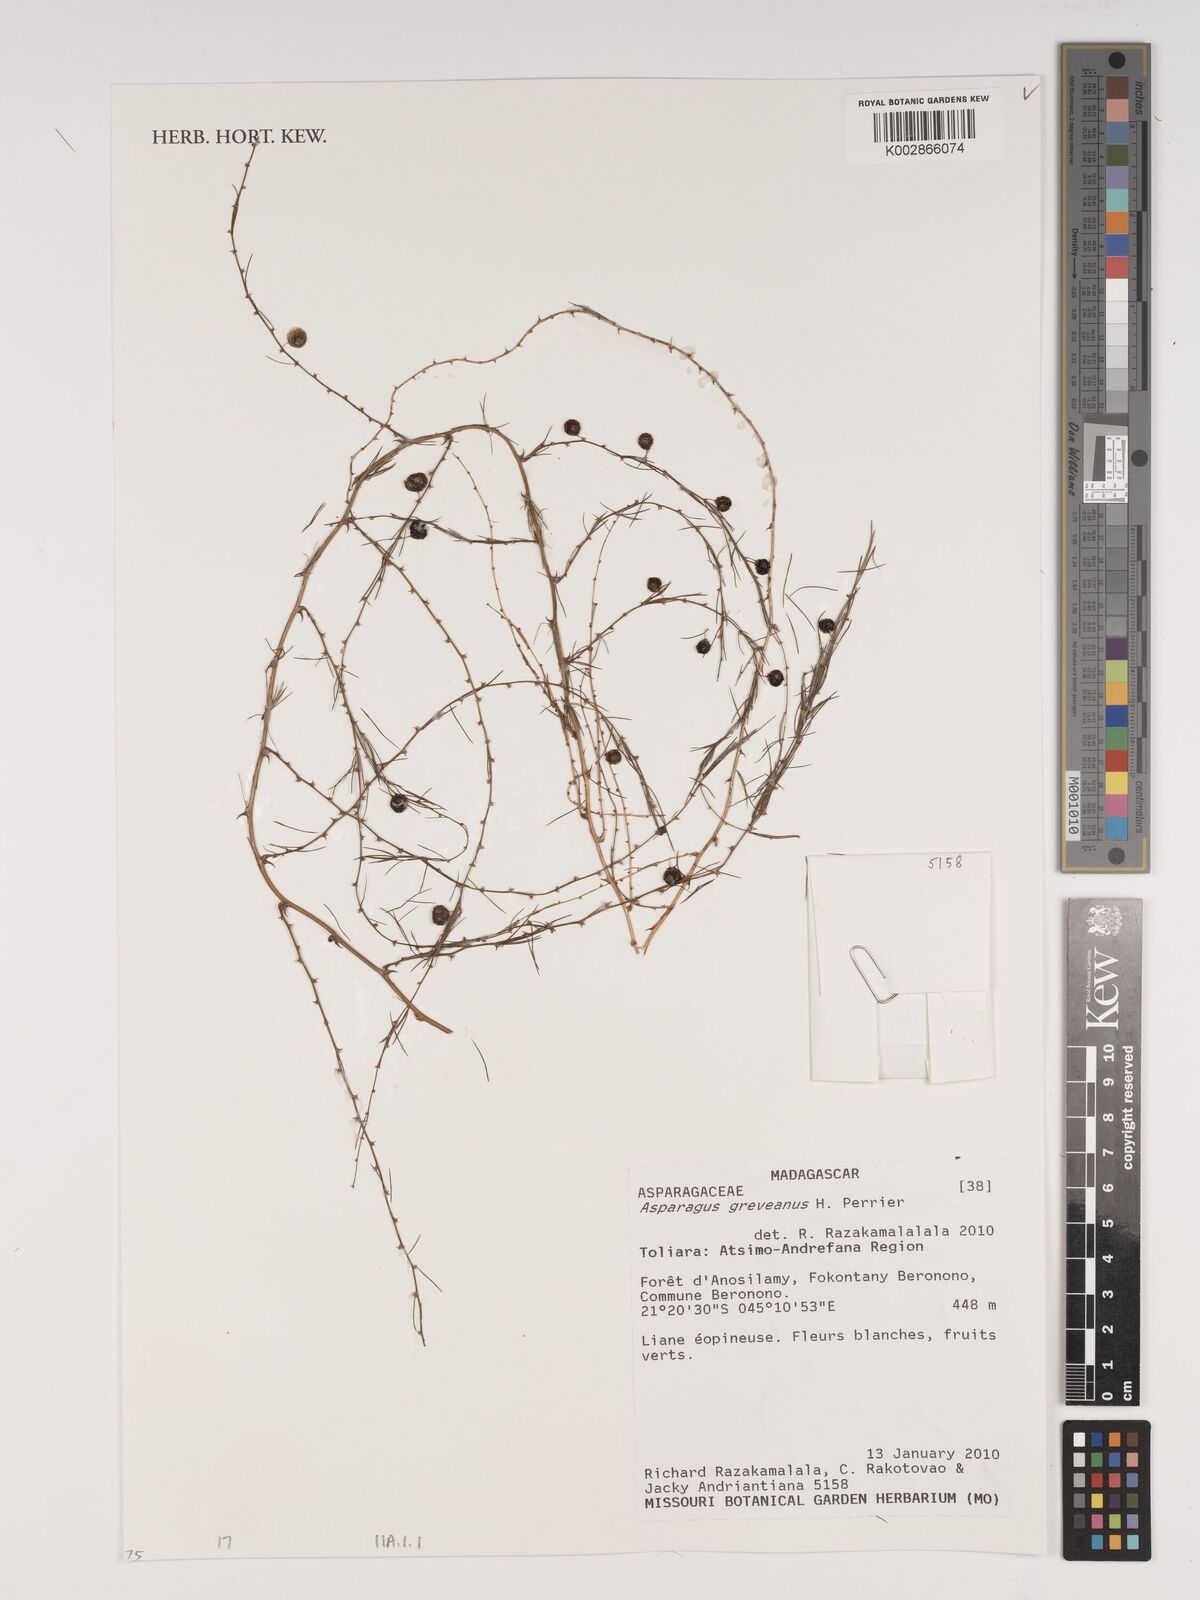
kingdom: Plantae
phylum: Tracheophyta
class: Liliopsida
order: Asparagales
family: Asparagaceae
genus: Asparagus
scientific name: Asparagus greveanus
